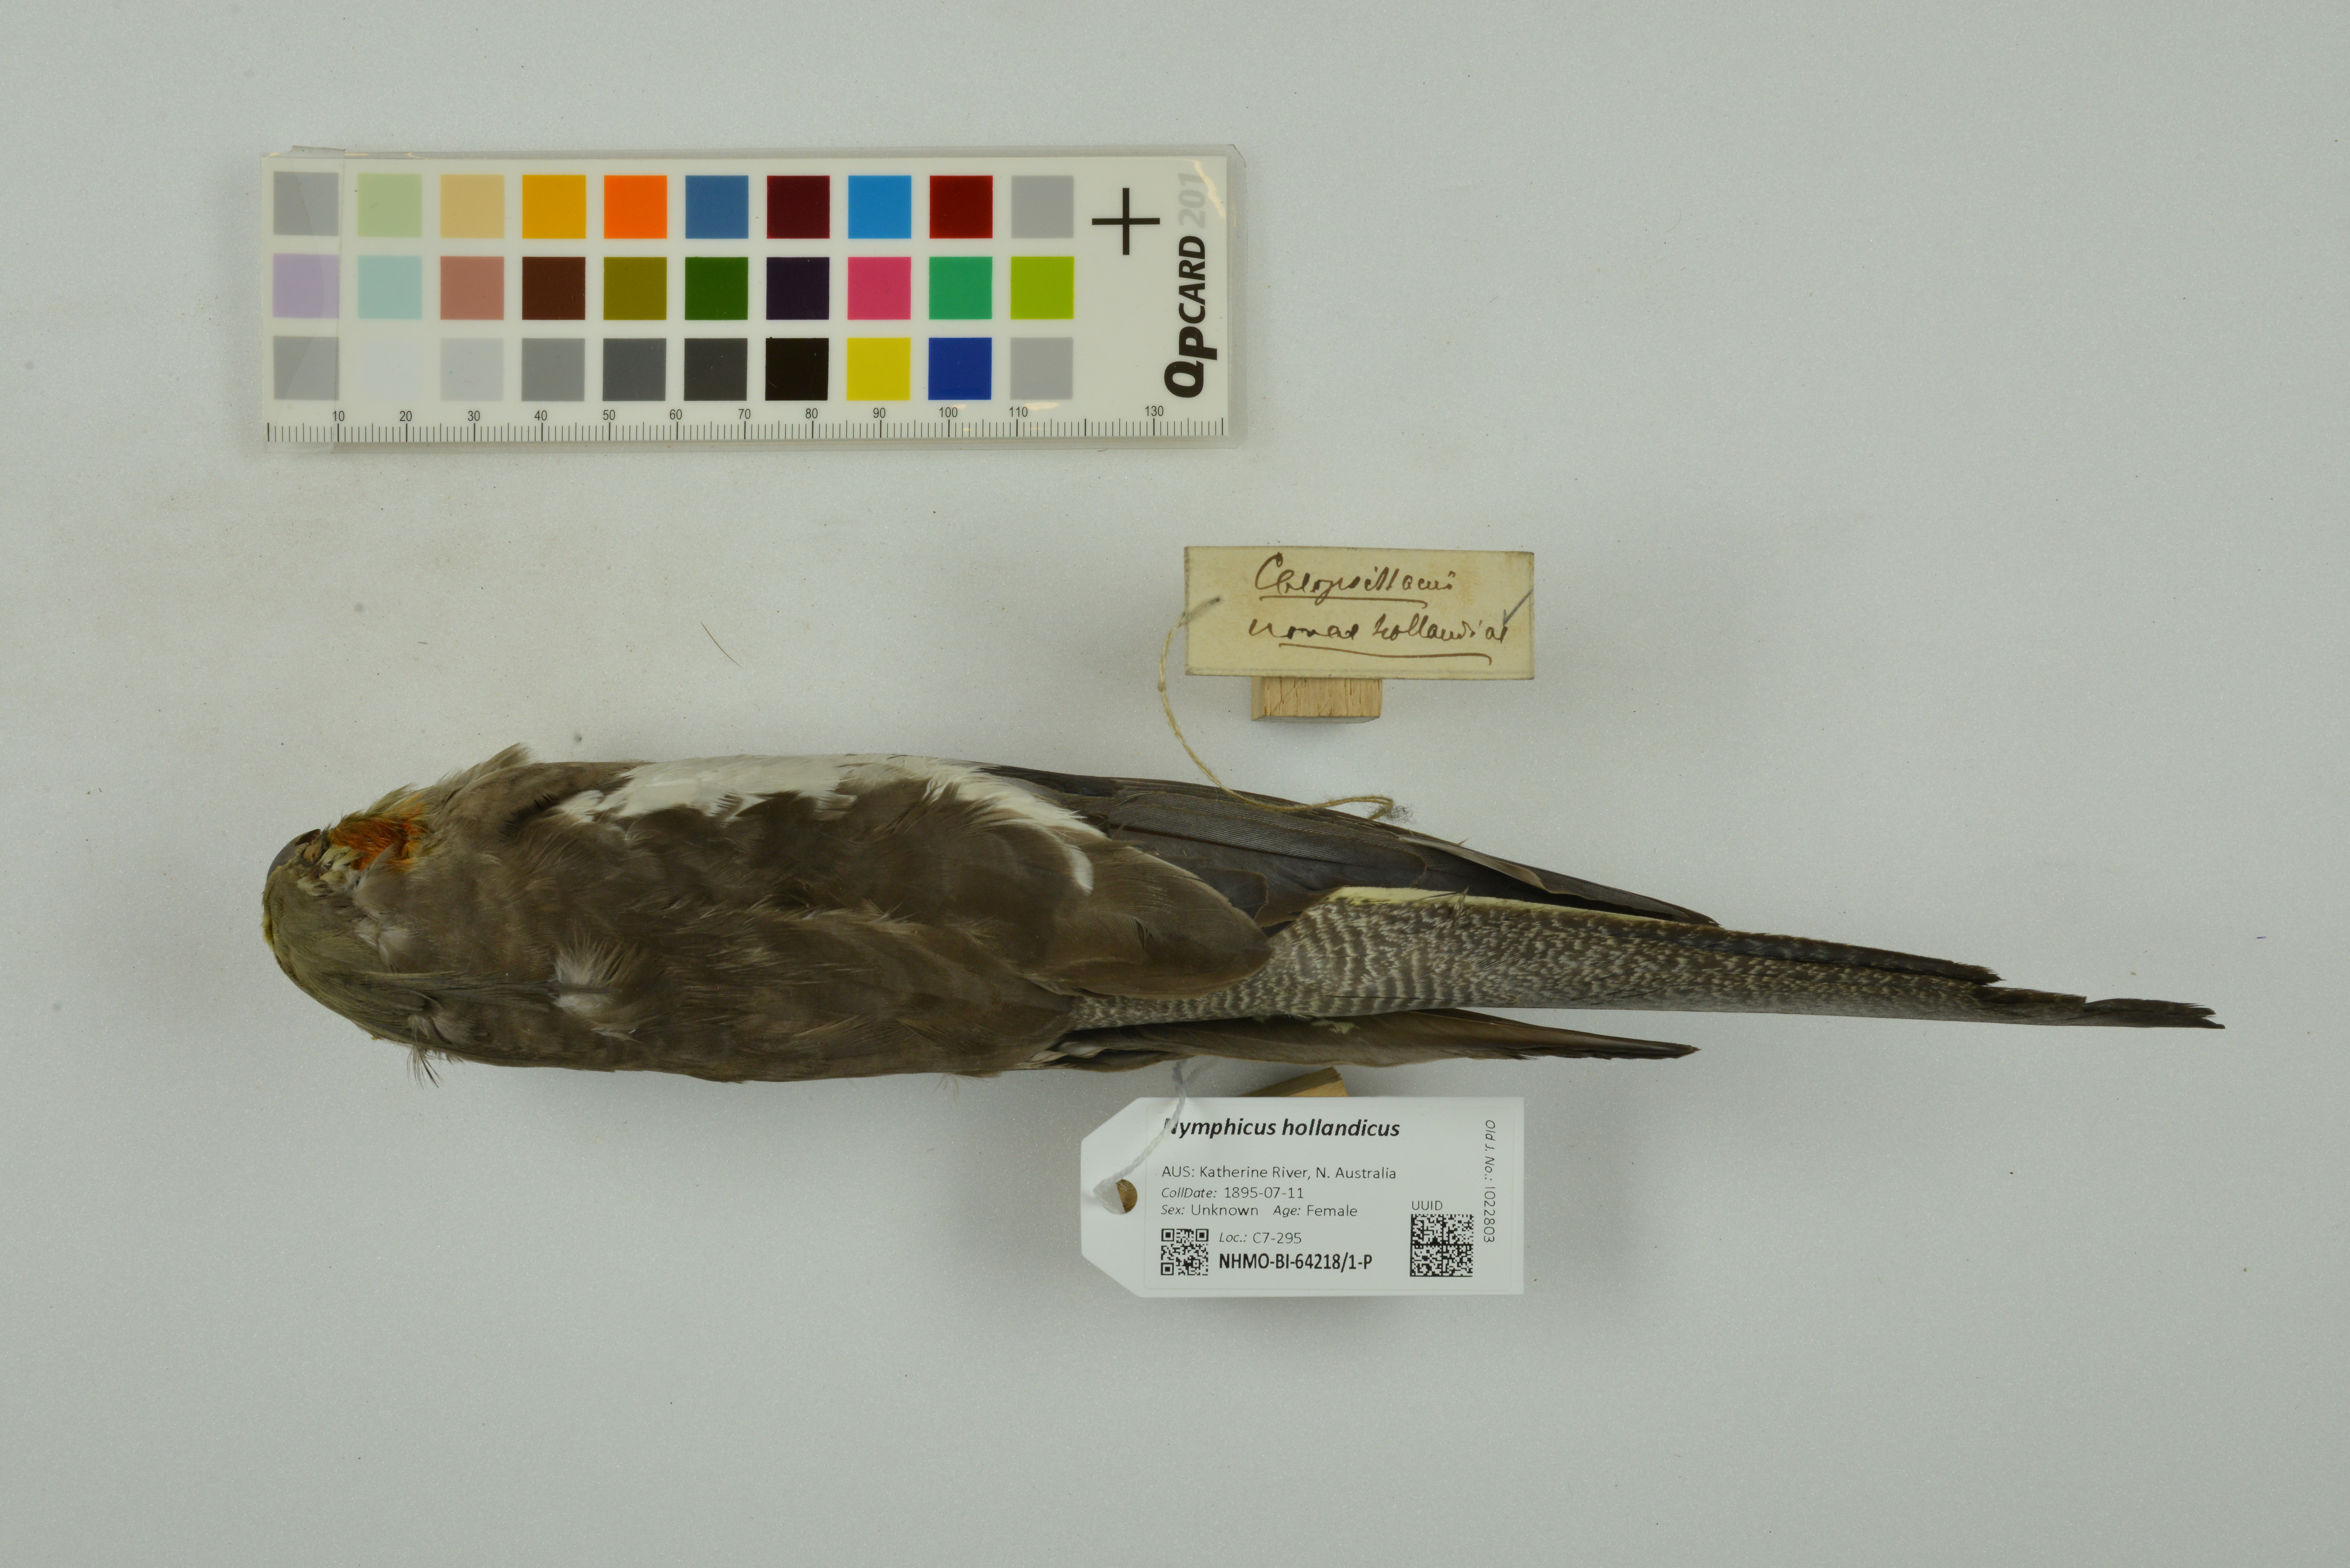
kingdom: Animalia
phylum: Chordata
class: Aves
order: Psittaciformes
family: Psittacidae
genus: Nymphicus
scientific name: Nymphicus hollandicus
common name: Cockatiel
